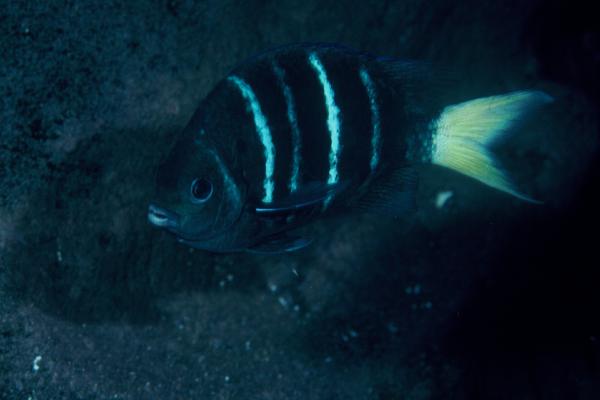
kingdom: Animalia
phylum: Chordata
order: Perciformes
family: Pomacentridae
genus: Abudefduf
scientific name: Abudefduf notatus
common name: Yellow-tail sergeant
